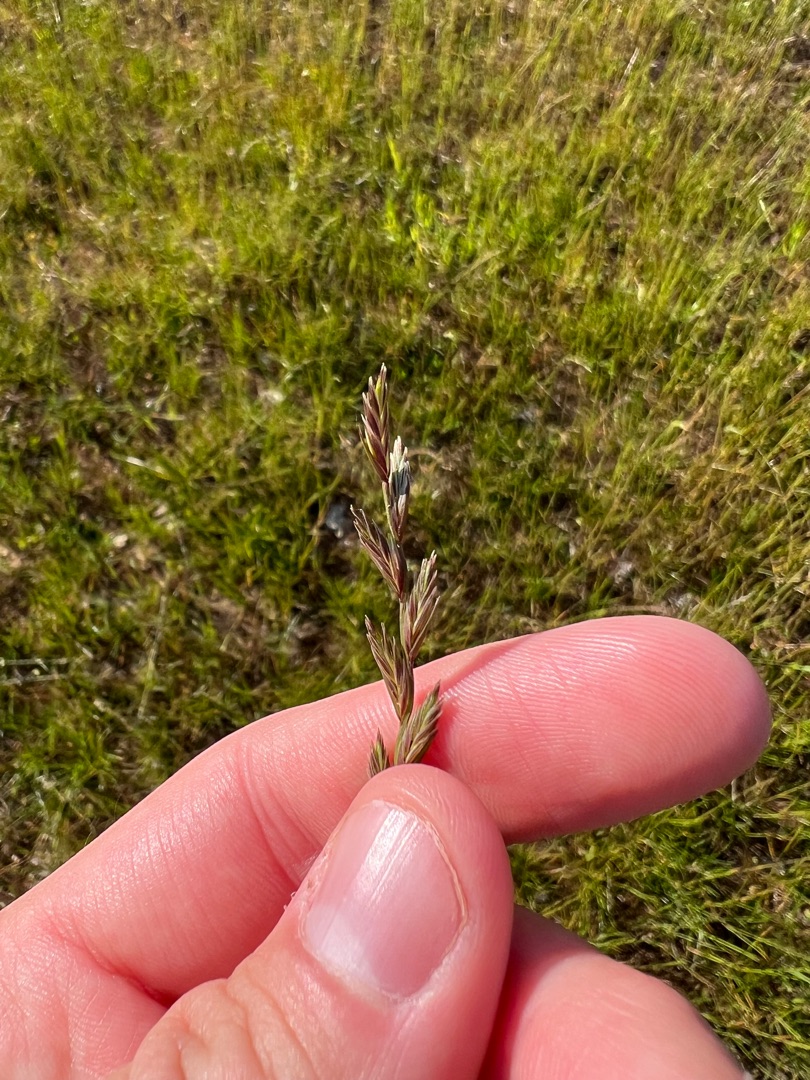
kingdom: Plantae
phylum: Tracheophyta
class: Liliopsida
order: Poales
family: Poaceae
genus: Lolium
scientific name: Lolium perenne
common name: Almindelig rajgræs
